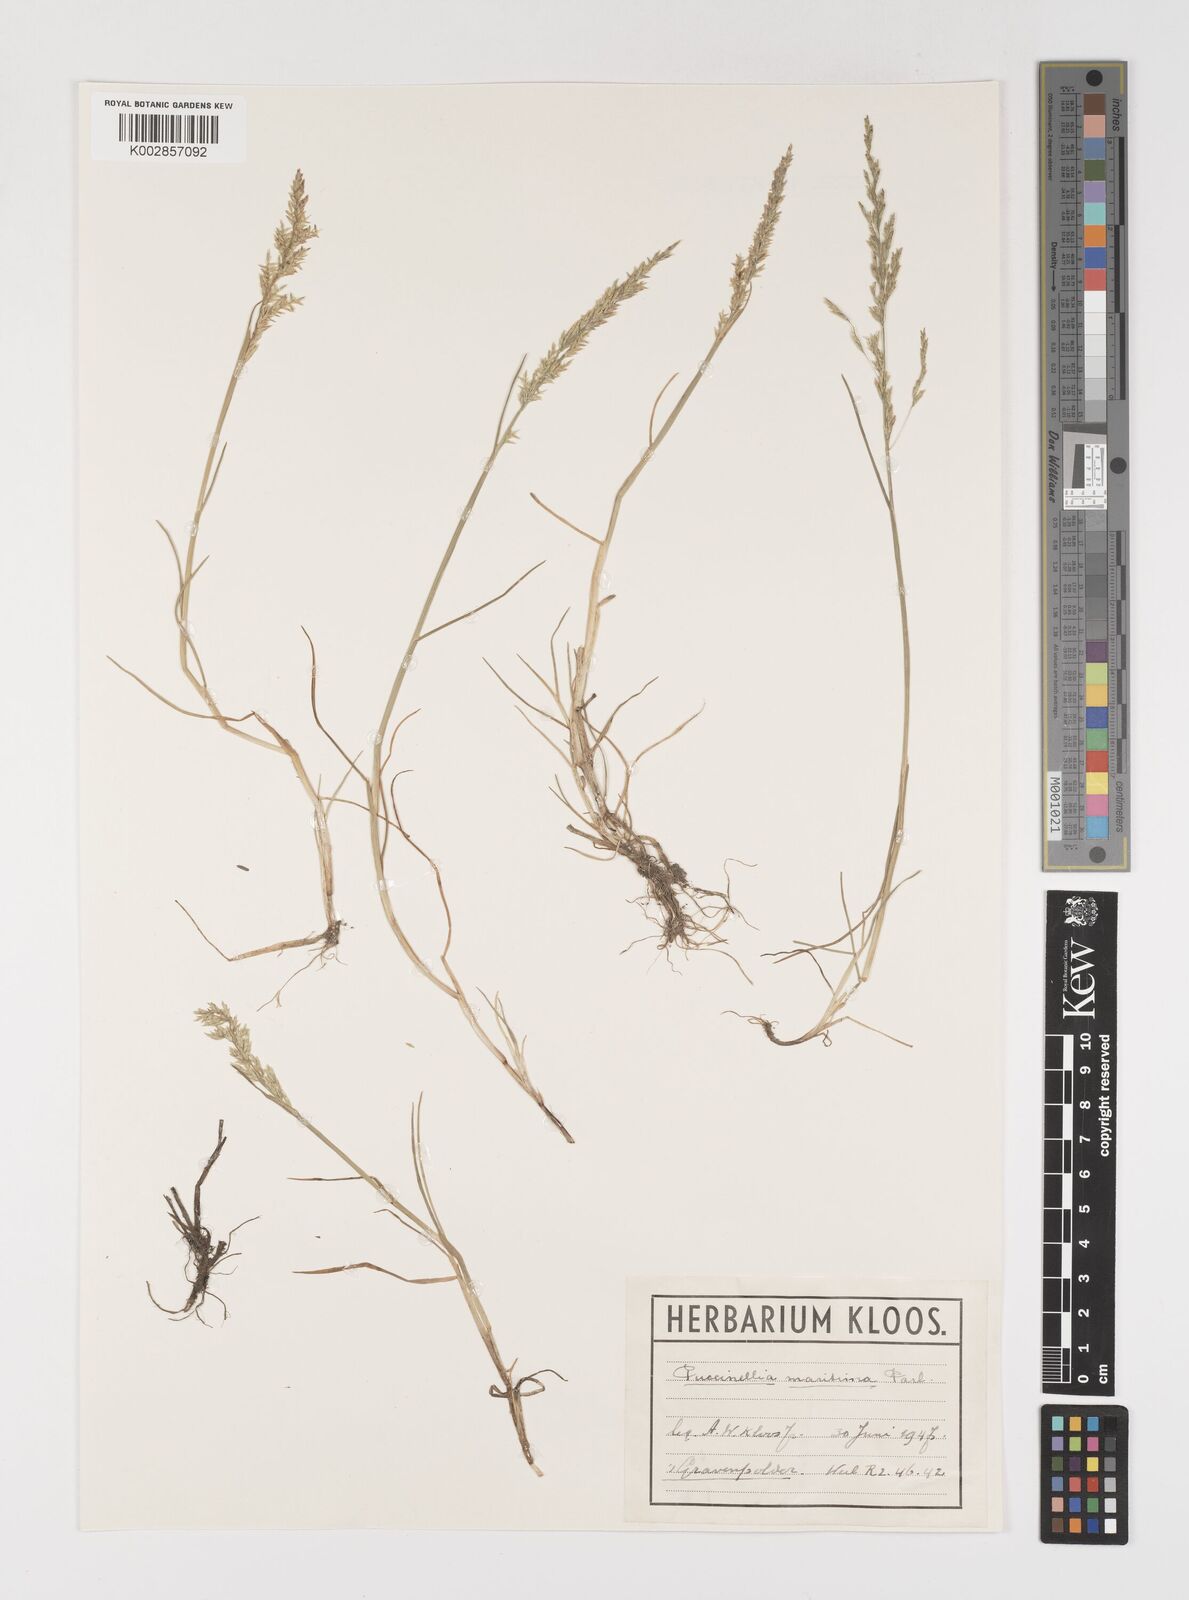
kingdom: Plantae
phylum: Tracheophyta
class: Liliopsida
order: Poales
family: Poaceae
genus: Puccinellia
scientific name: Puccinellia maritima
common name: Common saltmarsh grass
